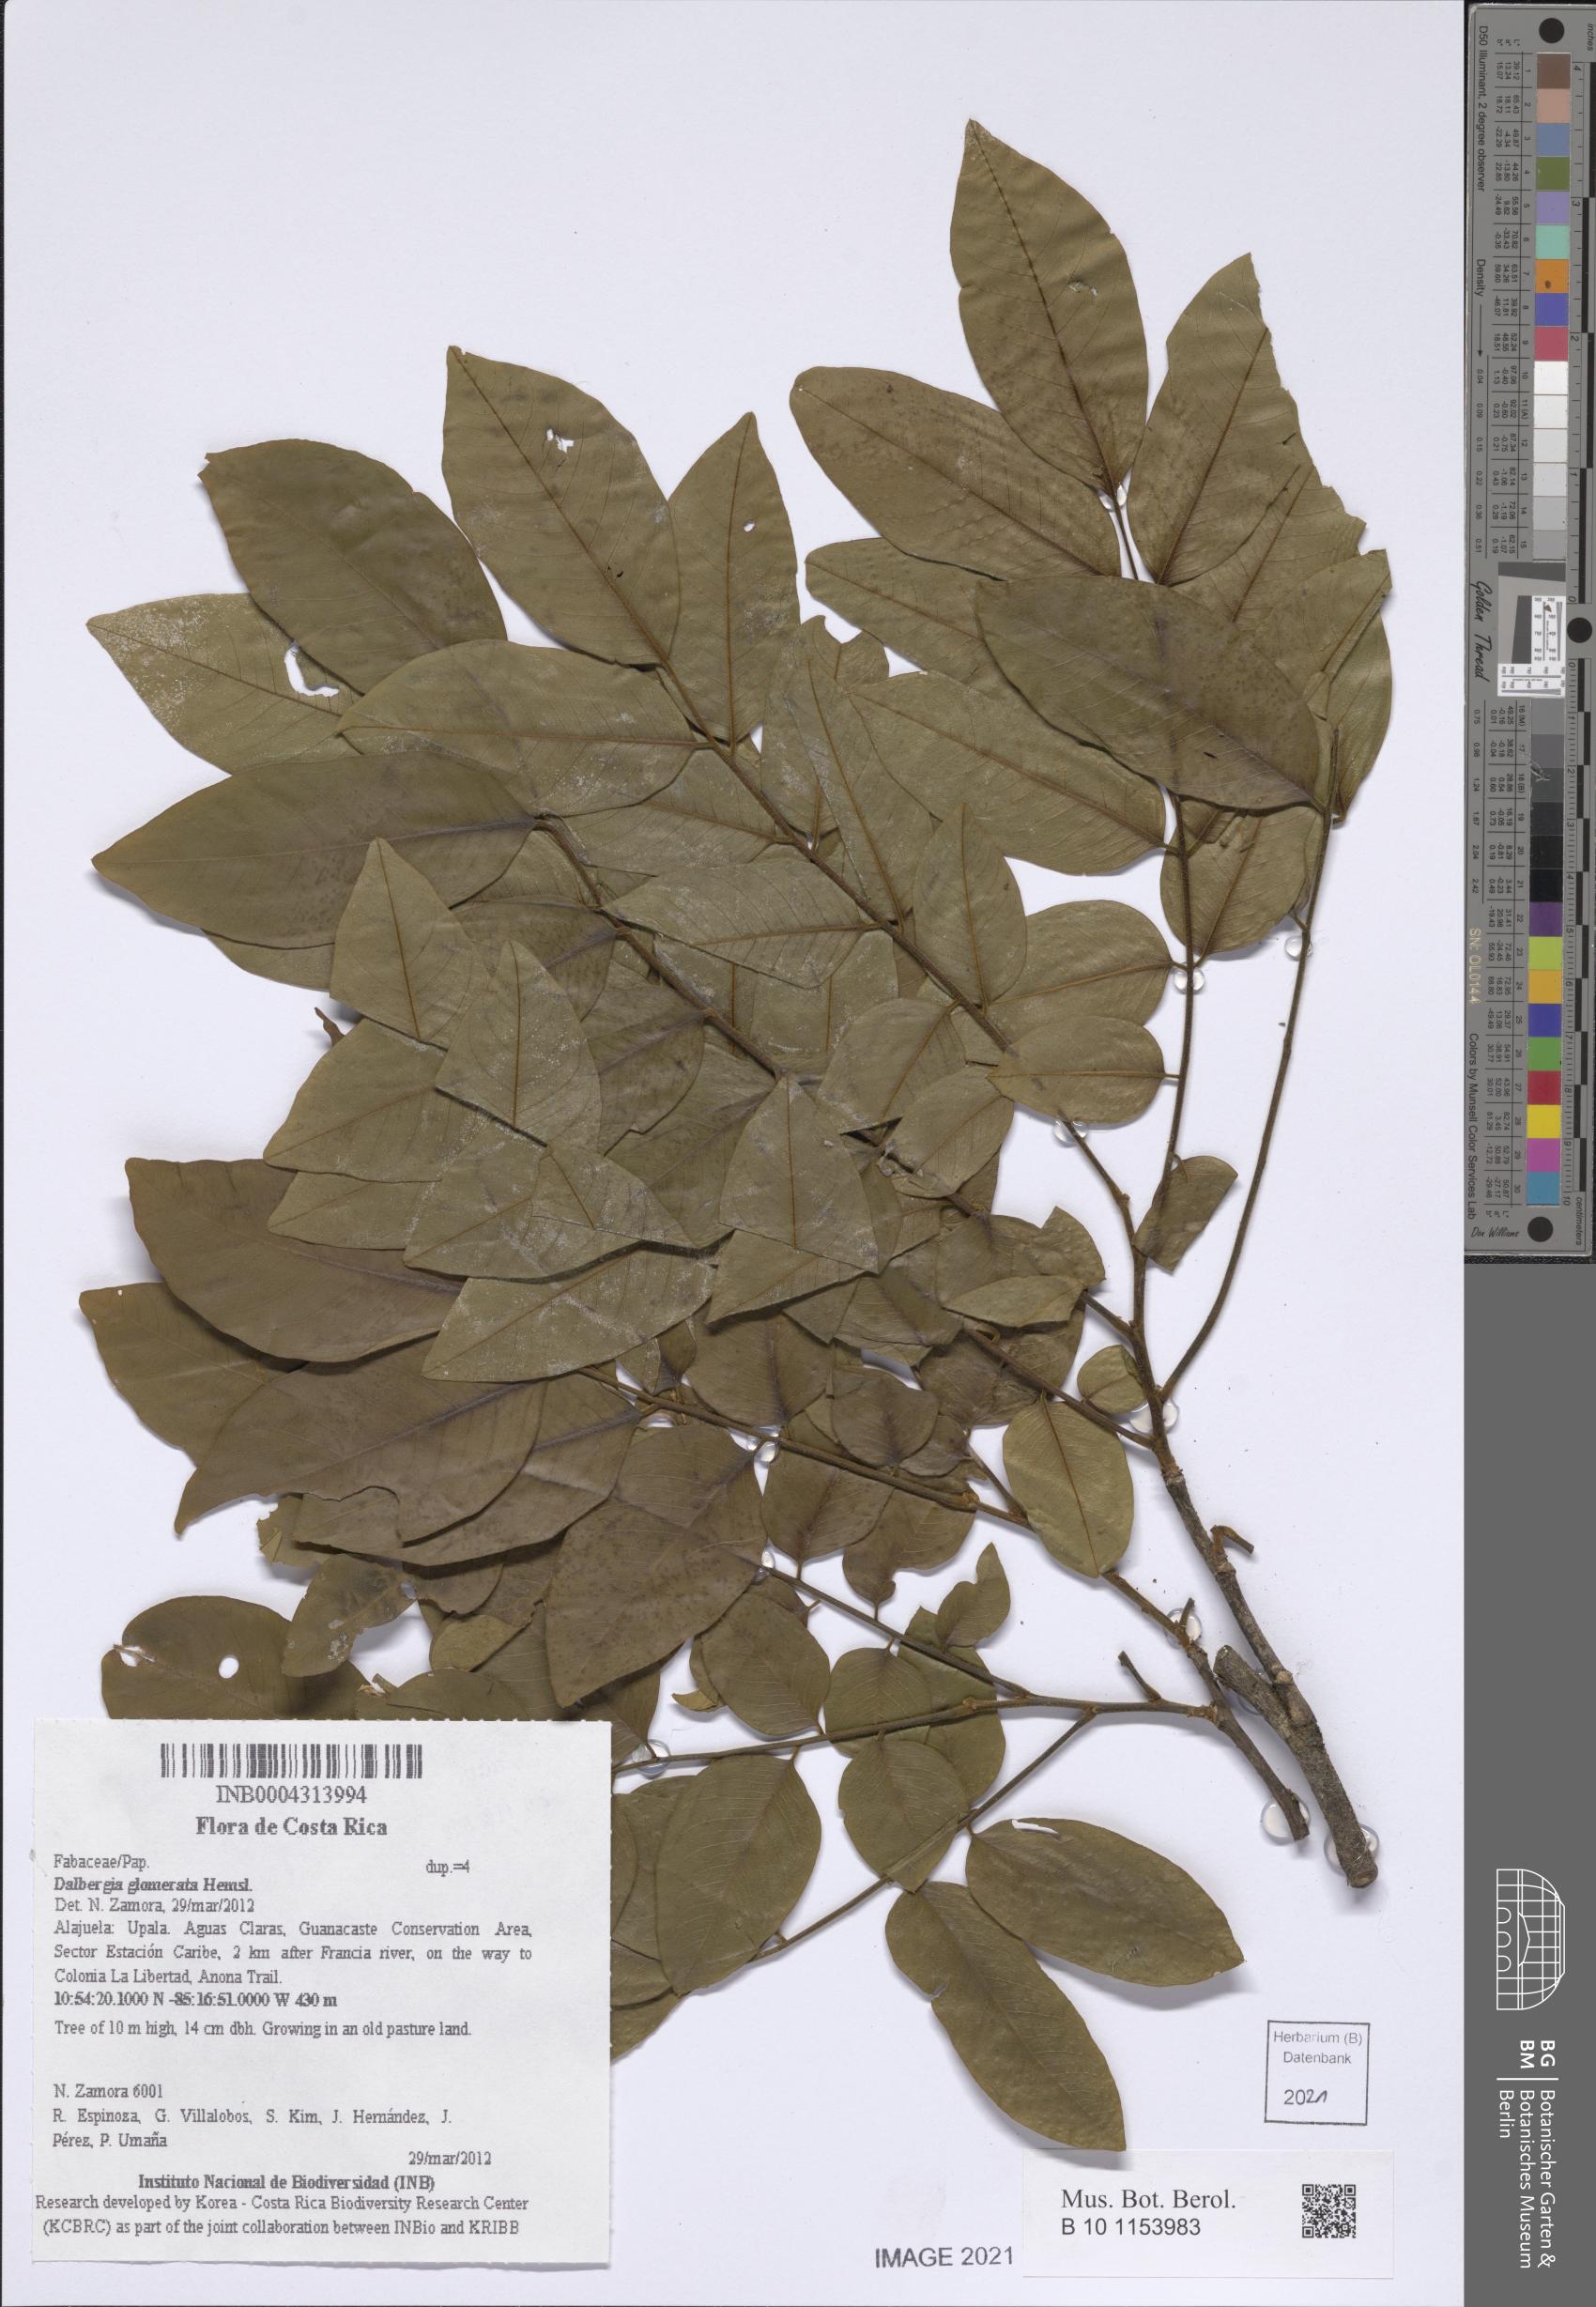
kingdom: Plantae
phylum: Tracheophyta
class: Magnoliopsida
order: Fabales
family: Fabaceae
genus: Dalbergia
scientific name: Dalbergia glomerata
